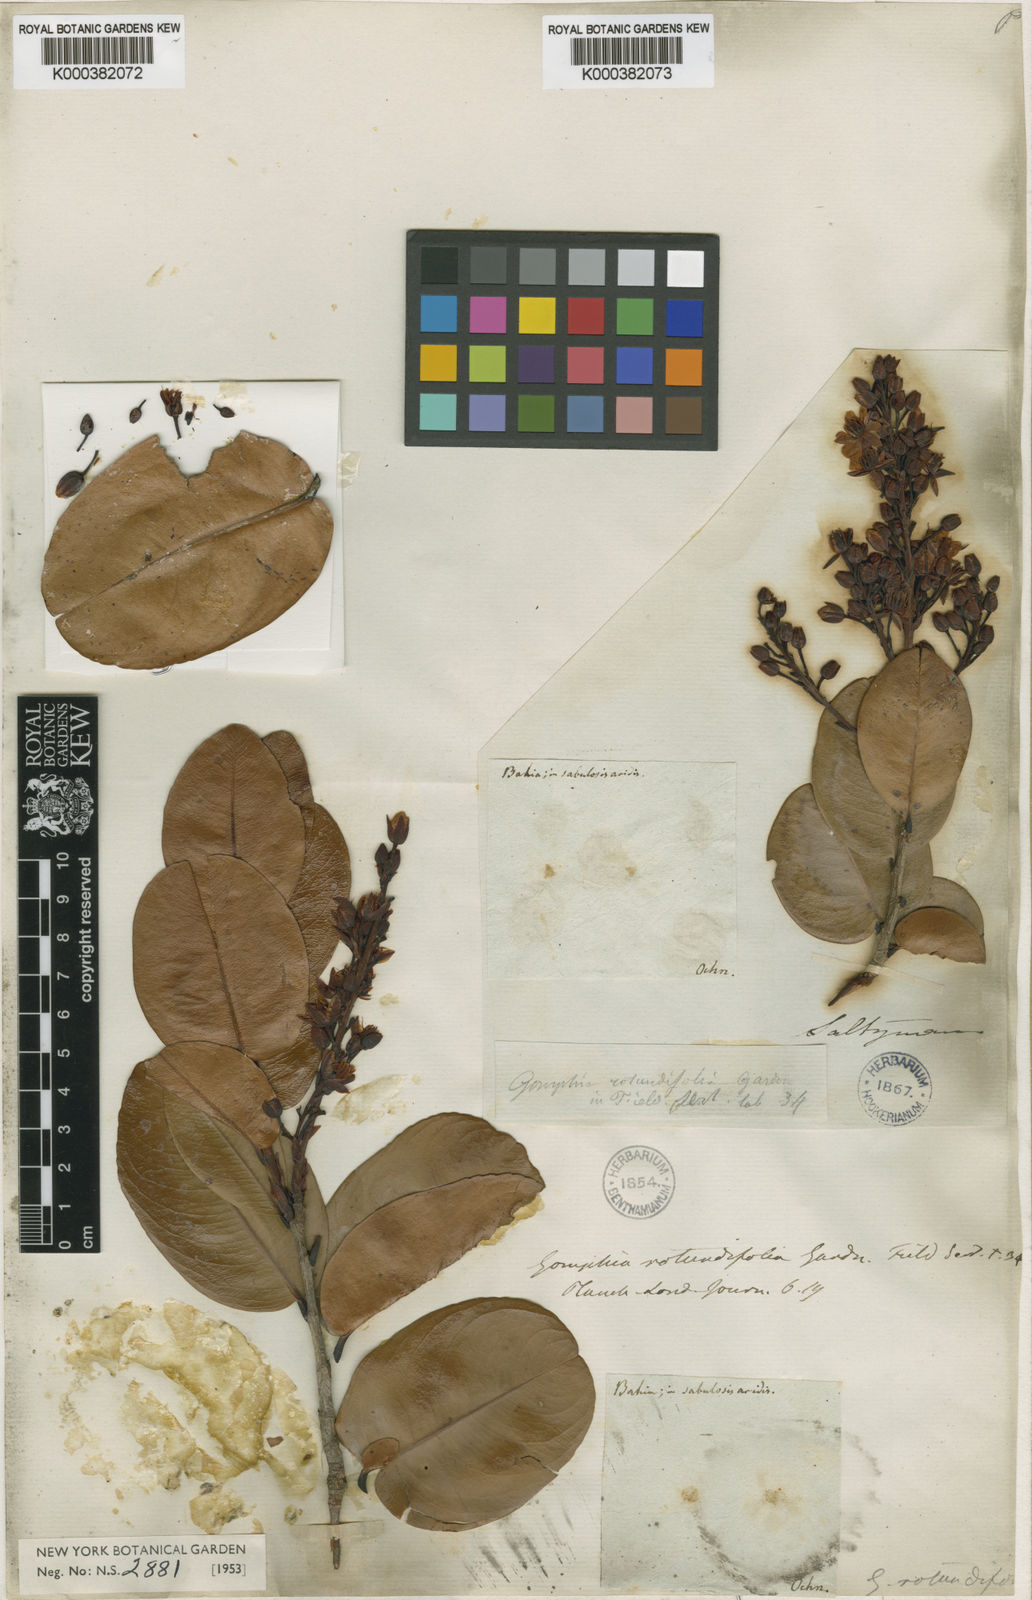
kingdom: Plantae
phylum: Tracheophyta
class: Magnoliopsida
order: Malpighiales
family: Ochnaceae
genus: Ouratea
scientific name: Ouratea rotundifolia
